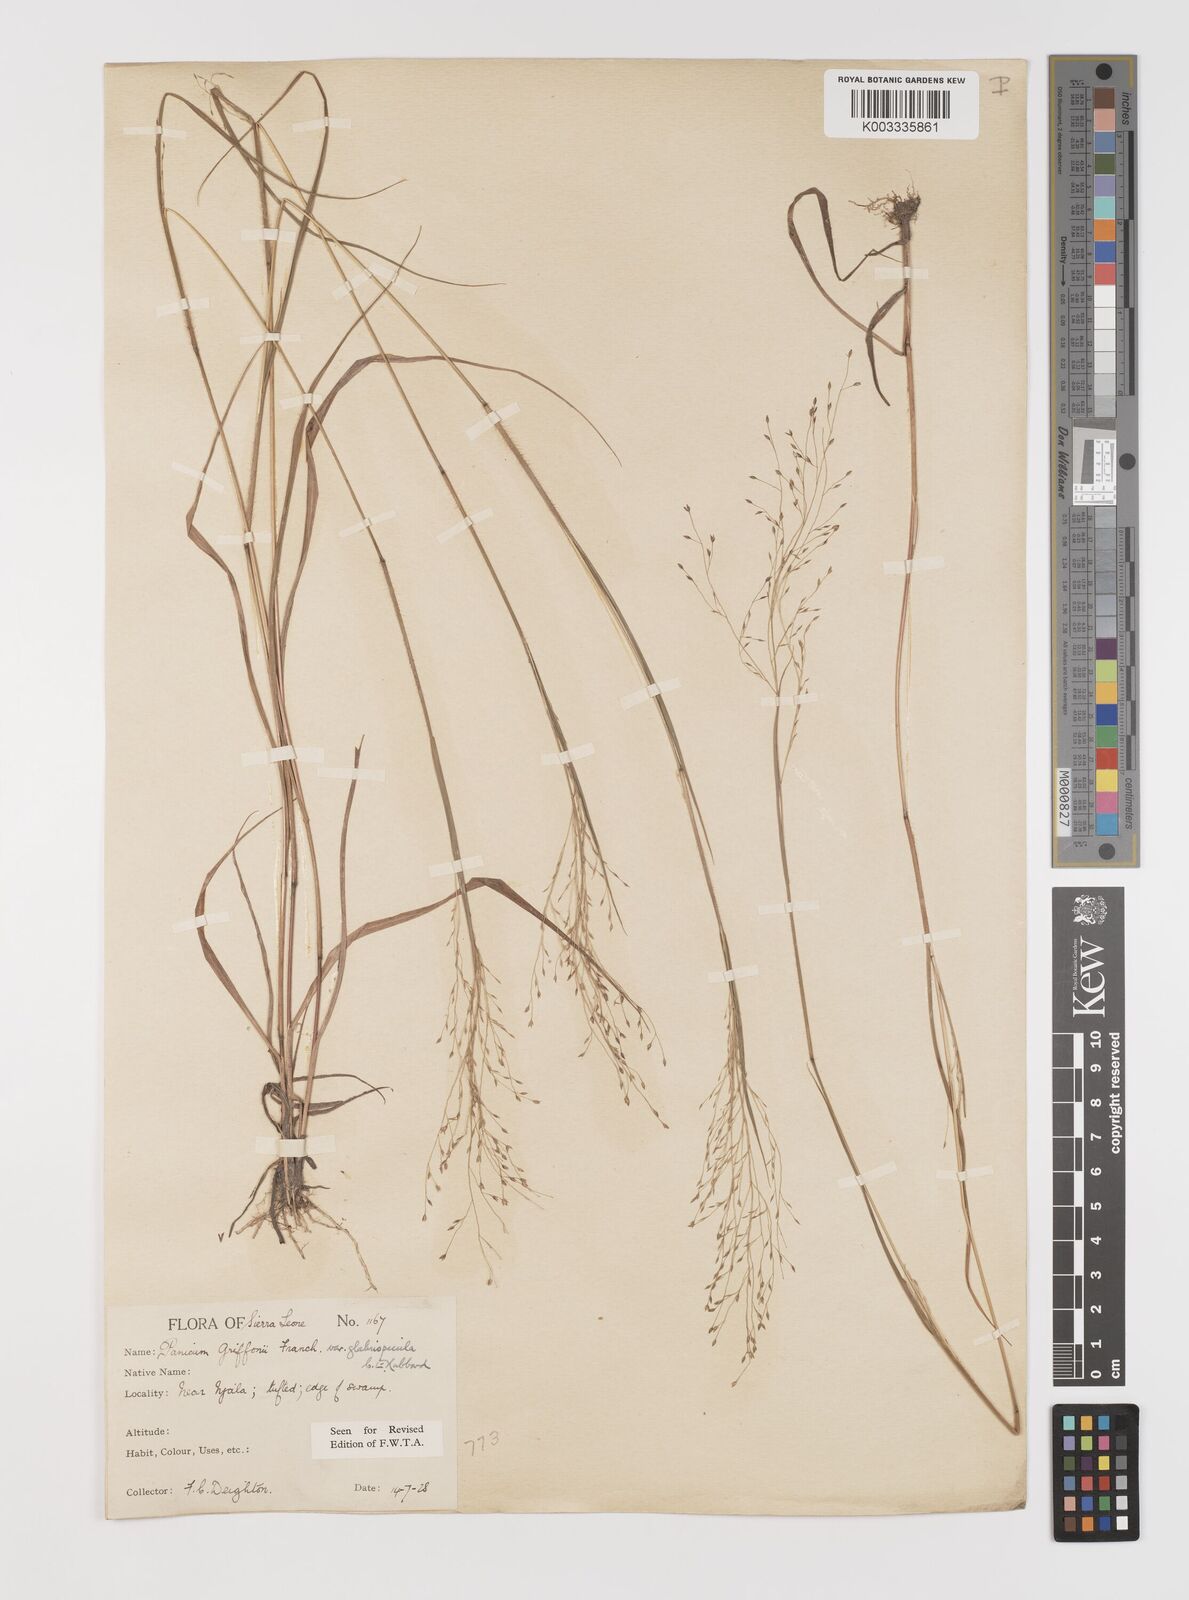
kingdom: Plantae
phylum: Tracheophyta
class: Liliopsida
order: Poales
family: Poaceae
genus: Panicum
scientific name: Panicum griffonii
